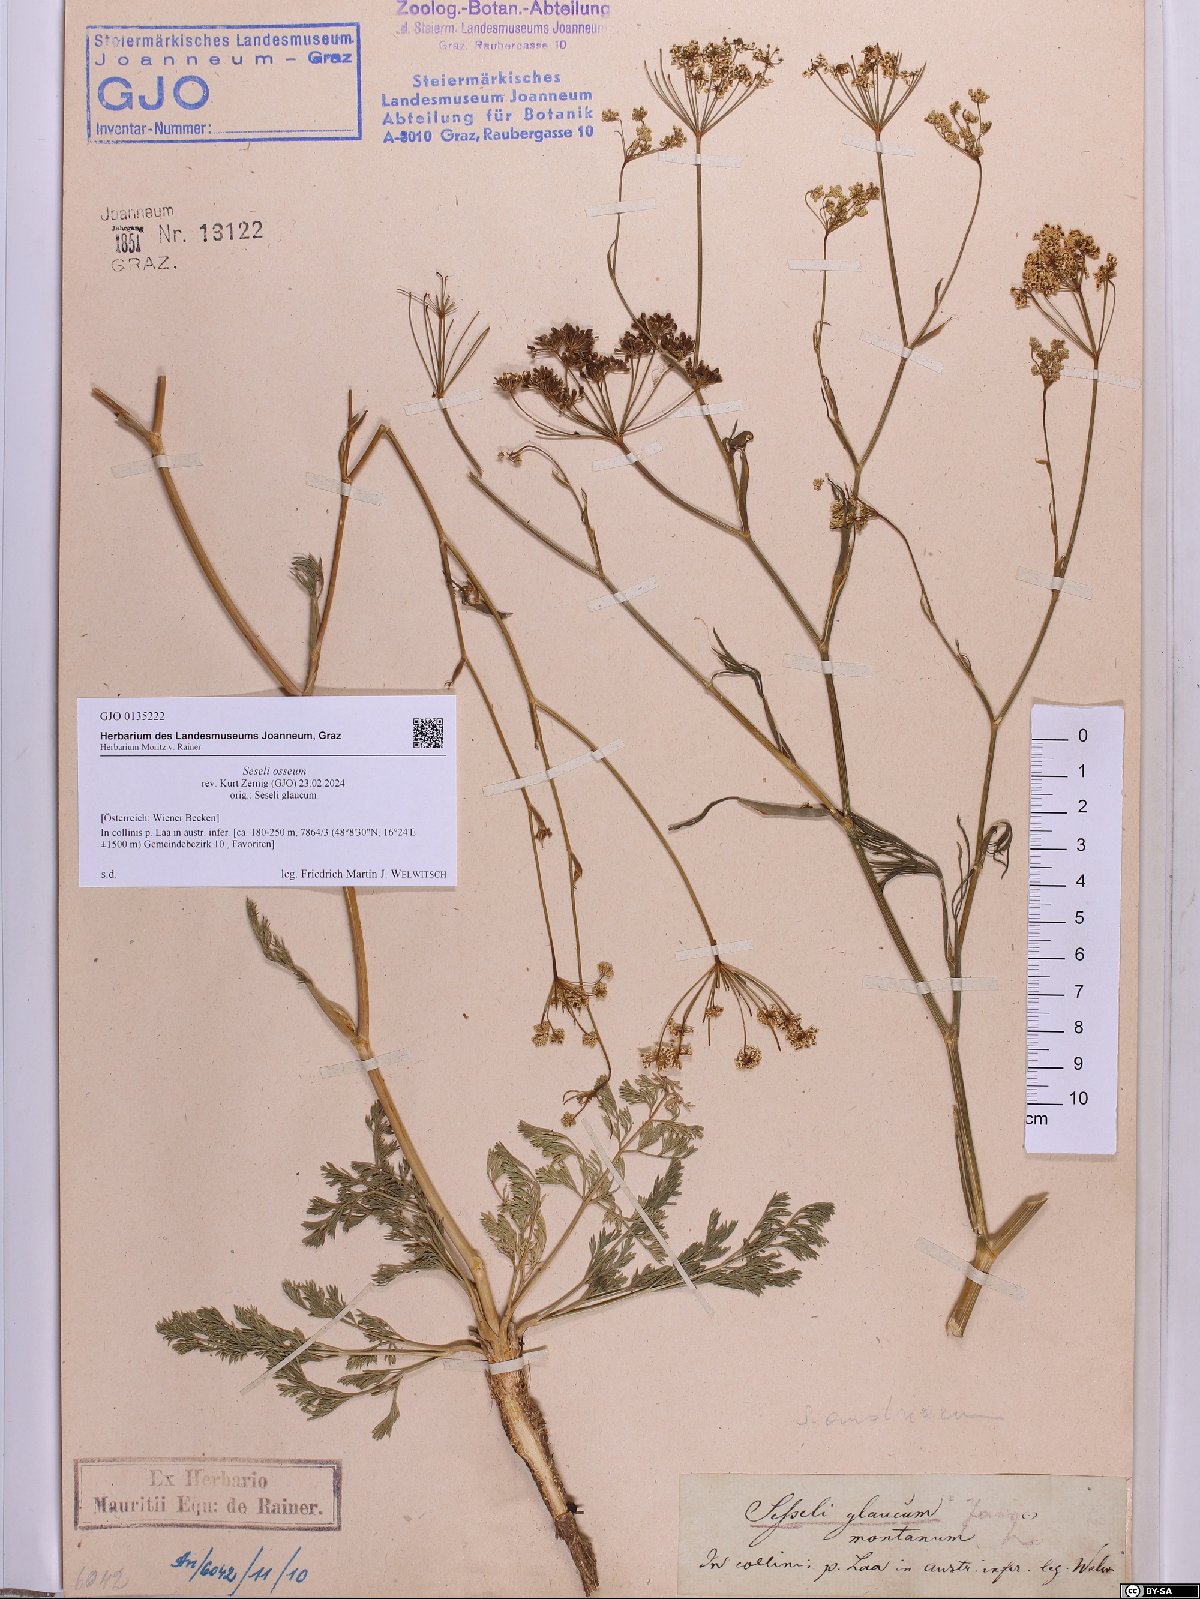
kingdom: Plantae
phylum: Tracheophyta
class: Magnoliopsida
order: Apiales
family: Apiaceae
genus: Seseli
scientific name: Seseli osseum
